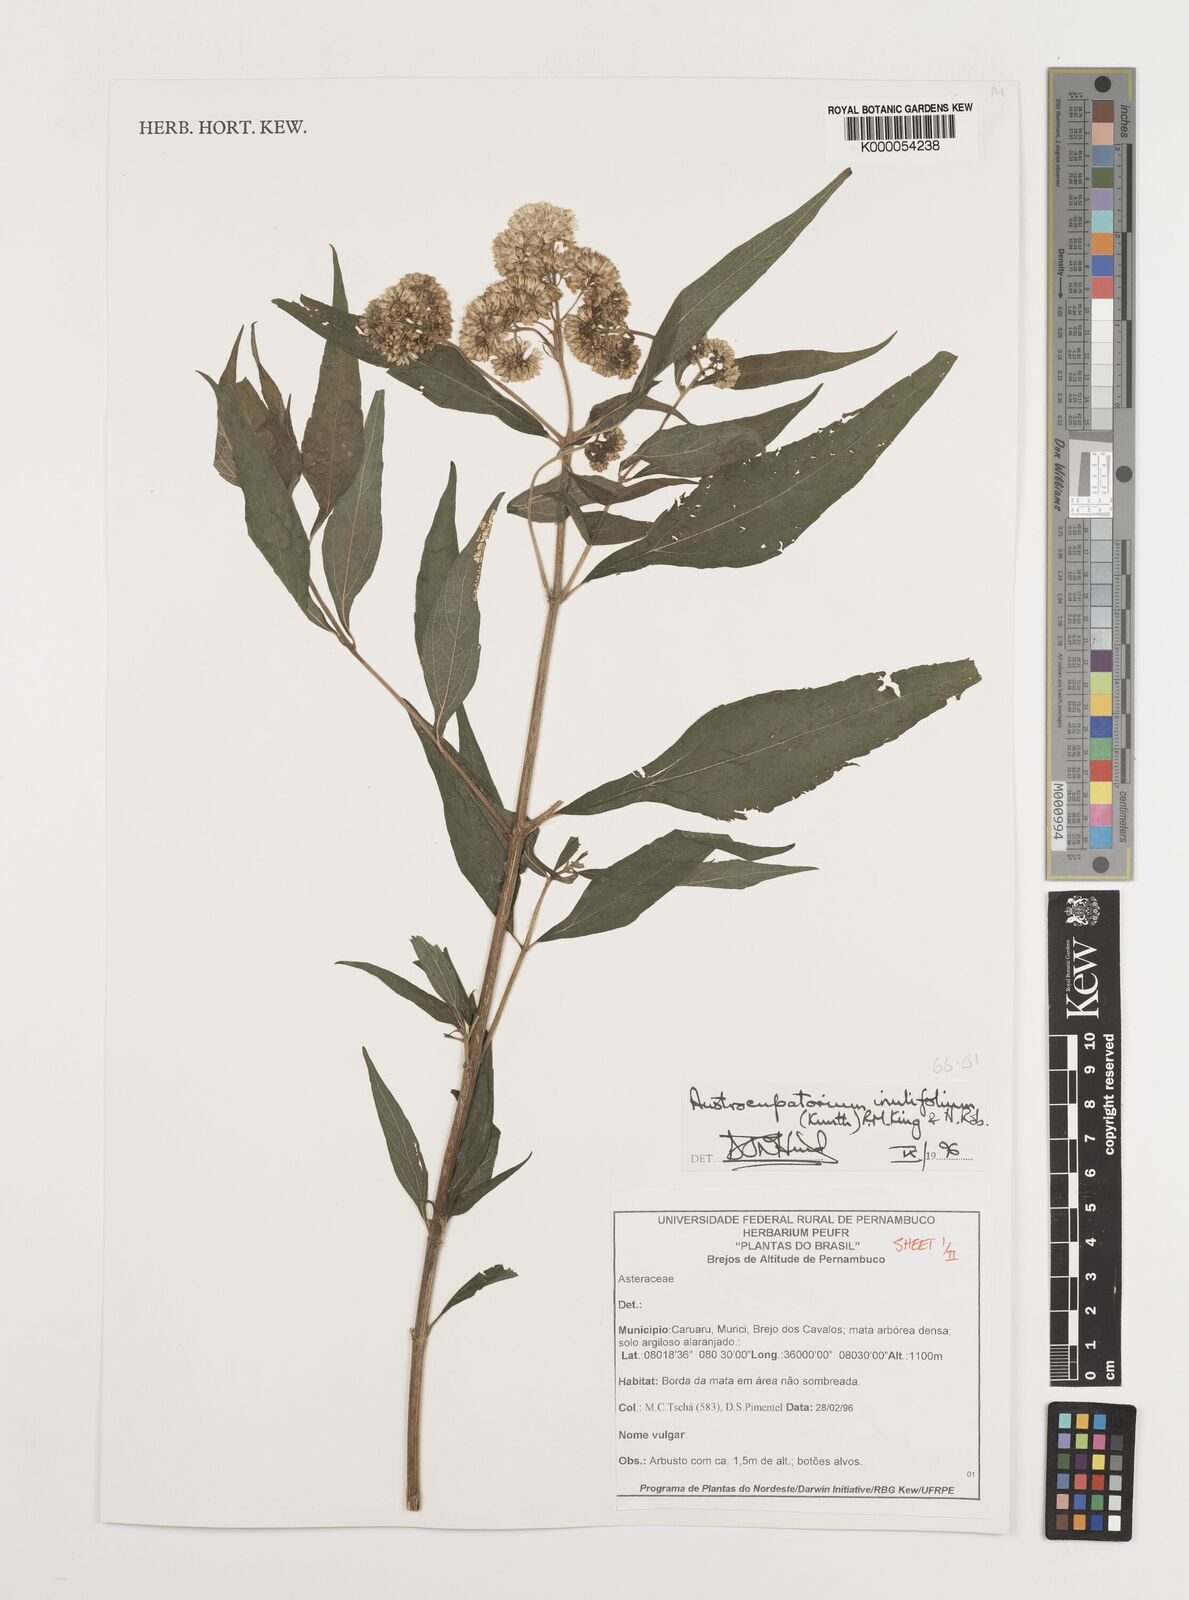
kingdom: Plantae
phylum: Tracheophyta
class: Magnoliopsida
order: Asterales
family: Asteraceae
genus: Austroeupatorium
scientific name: Austroeupatorium inulifolium
